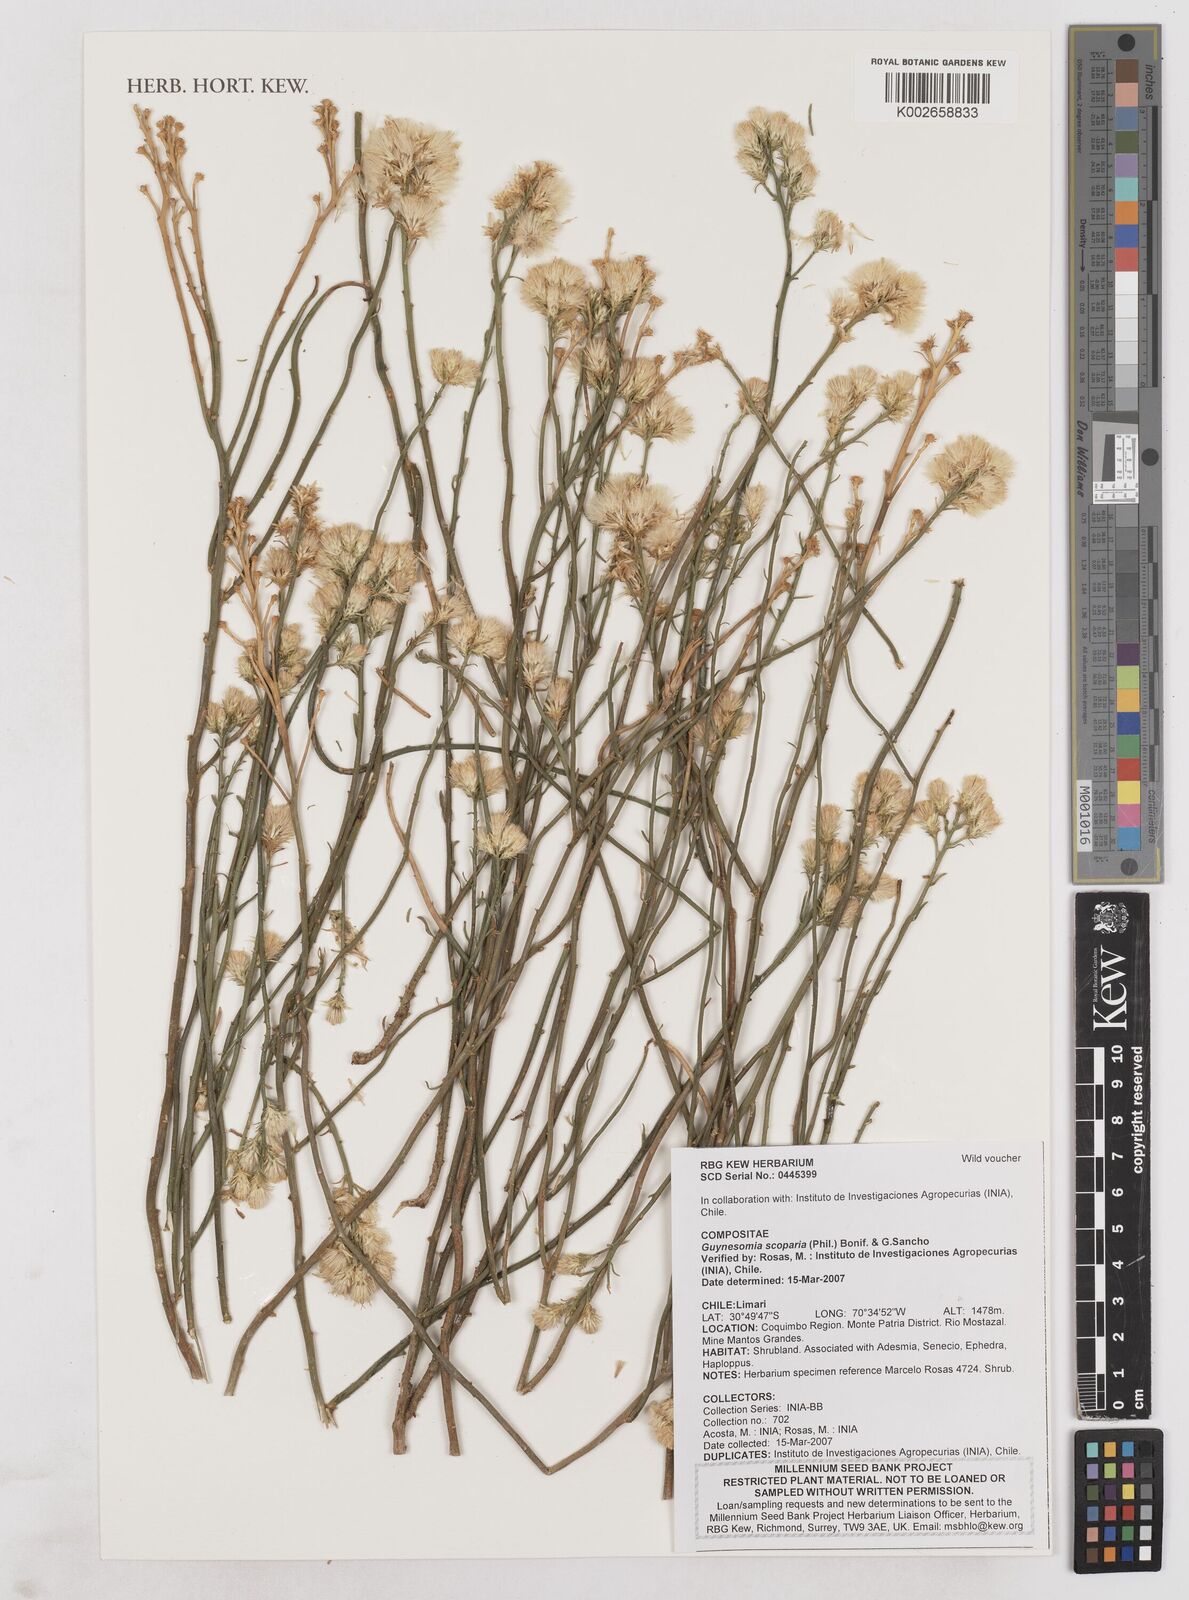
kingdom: Plantae
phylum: Tracheophyta
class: Magnoliopsida
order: Asterales
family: Asteraceae
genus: Guynesomia
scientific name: Guynesomia scoparia
